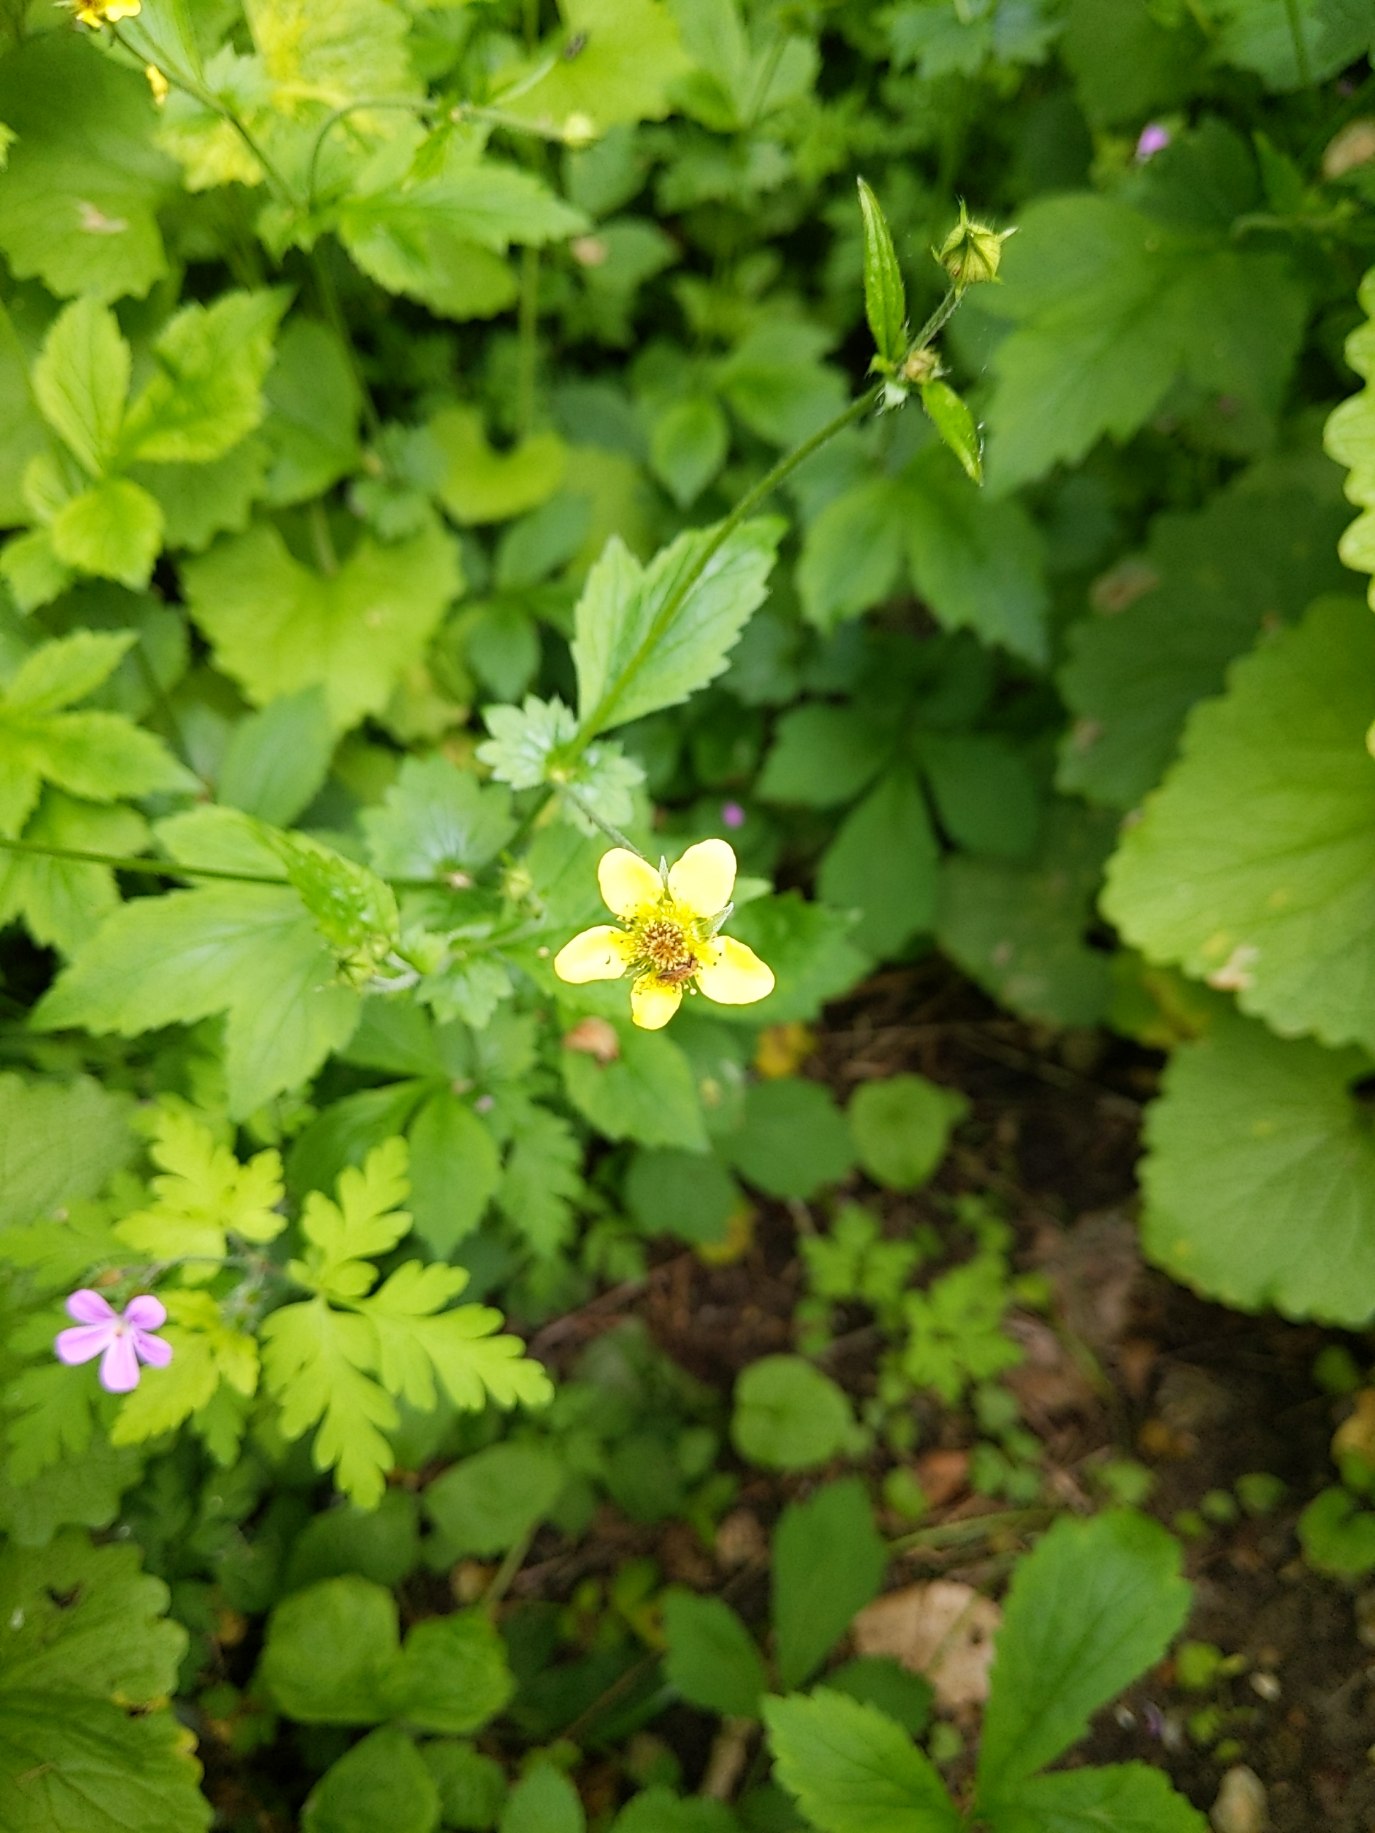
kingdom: Plantae
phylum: Tracheophyta
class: Magnoliopsida
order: Rosales
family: Rosaceae
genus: Geum
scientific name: Geum urbanum
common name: Feber-nellikerod
